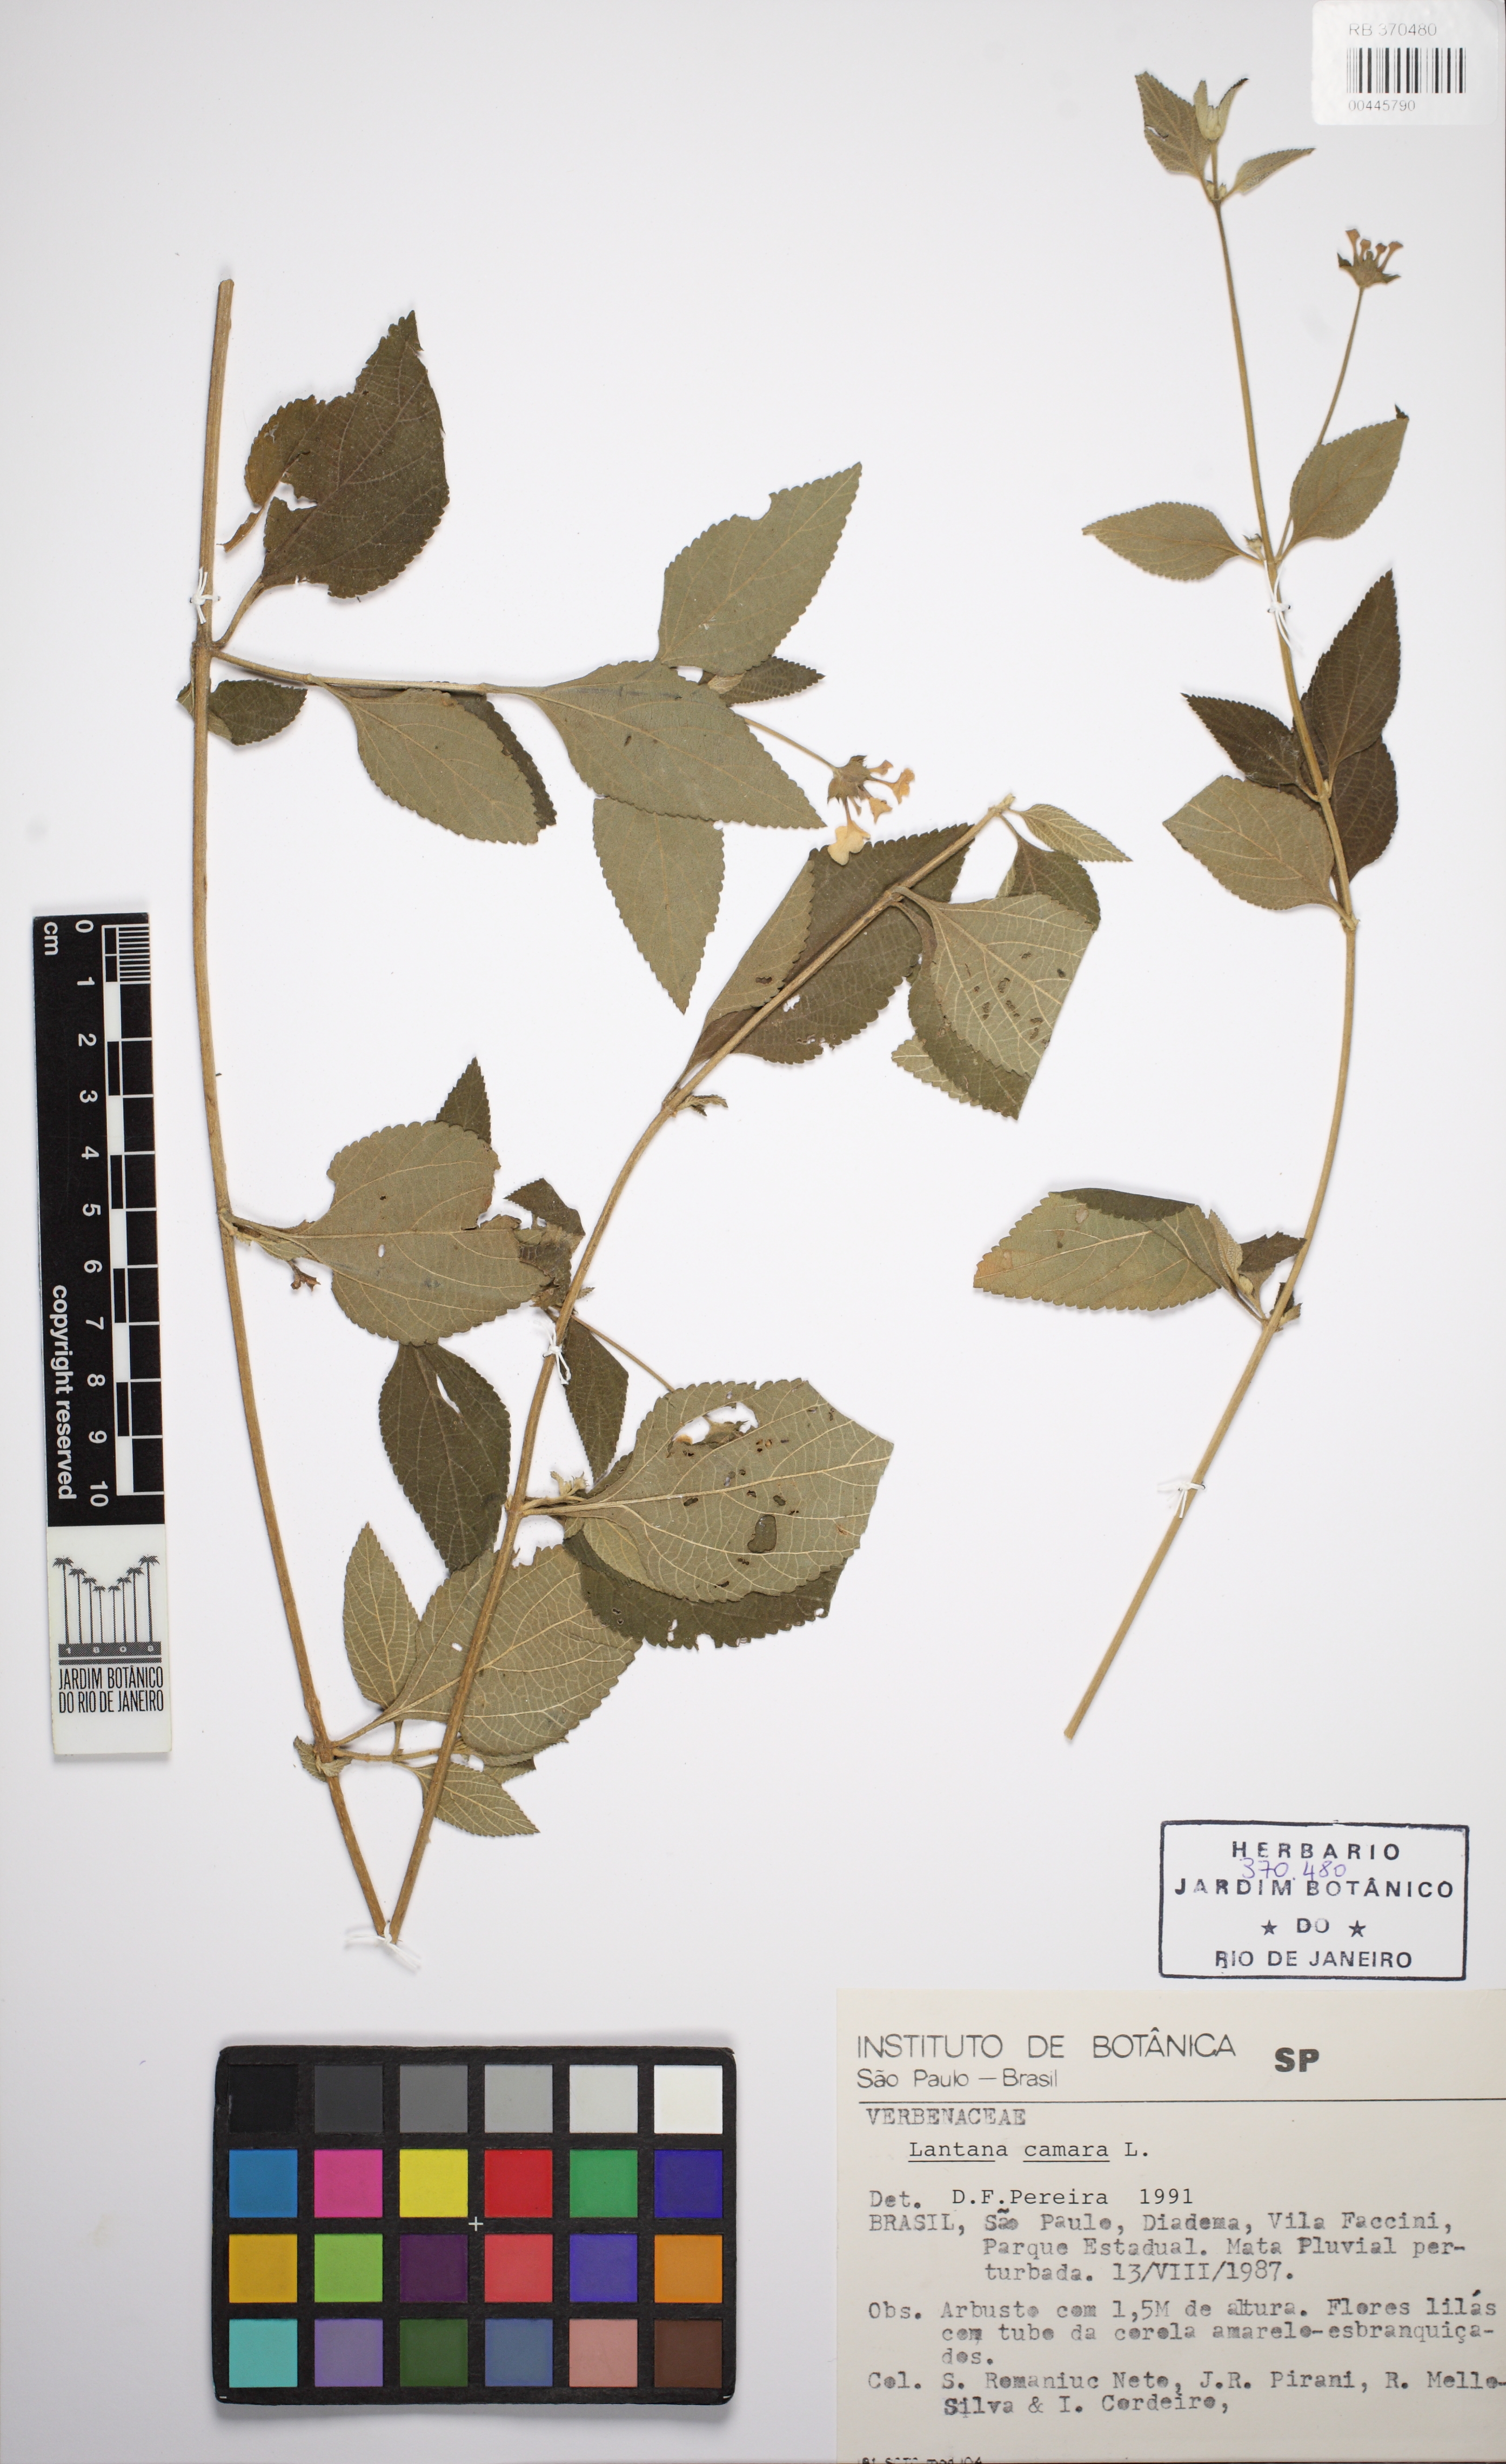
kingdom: Plantae
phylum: Tracheophyta
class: Magnoliopsida
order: Lamiales
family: Verbenaceae
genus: Lantana
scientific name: Lantana camara
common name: Lantana
